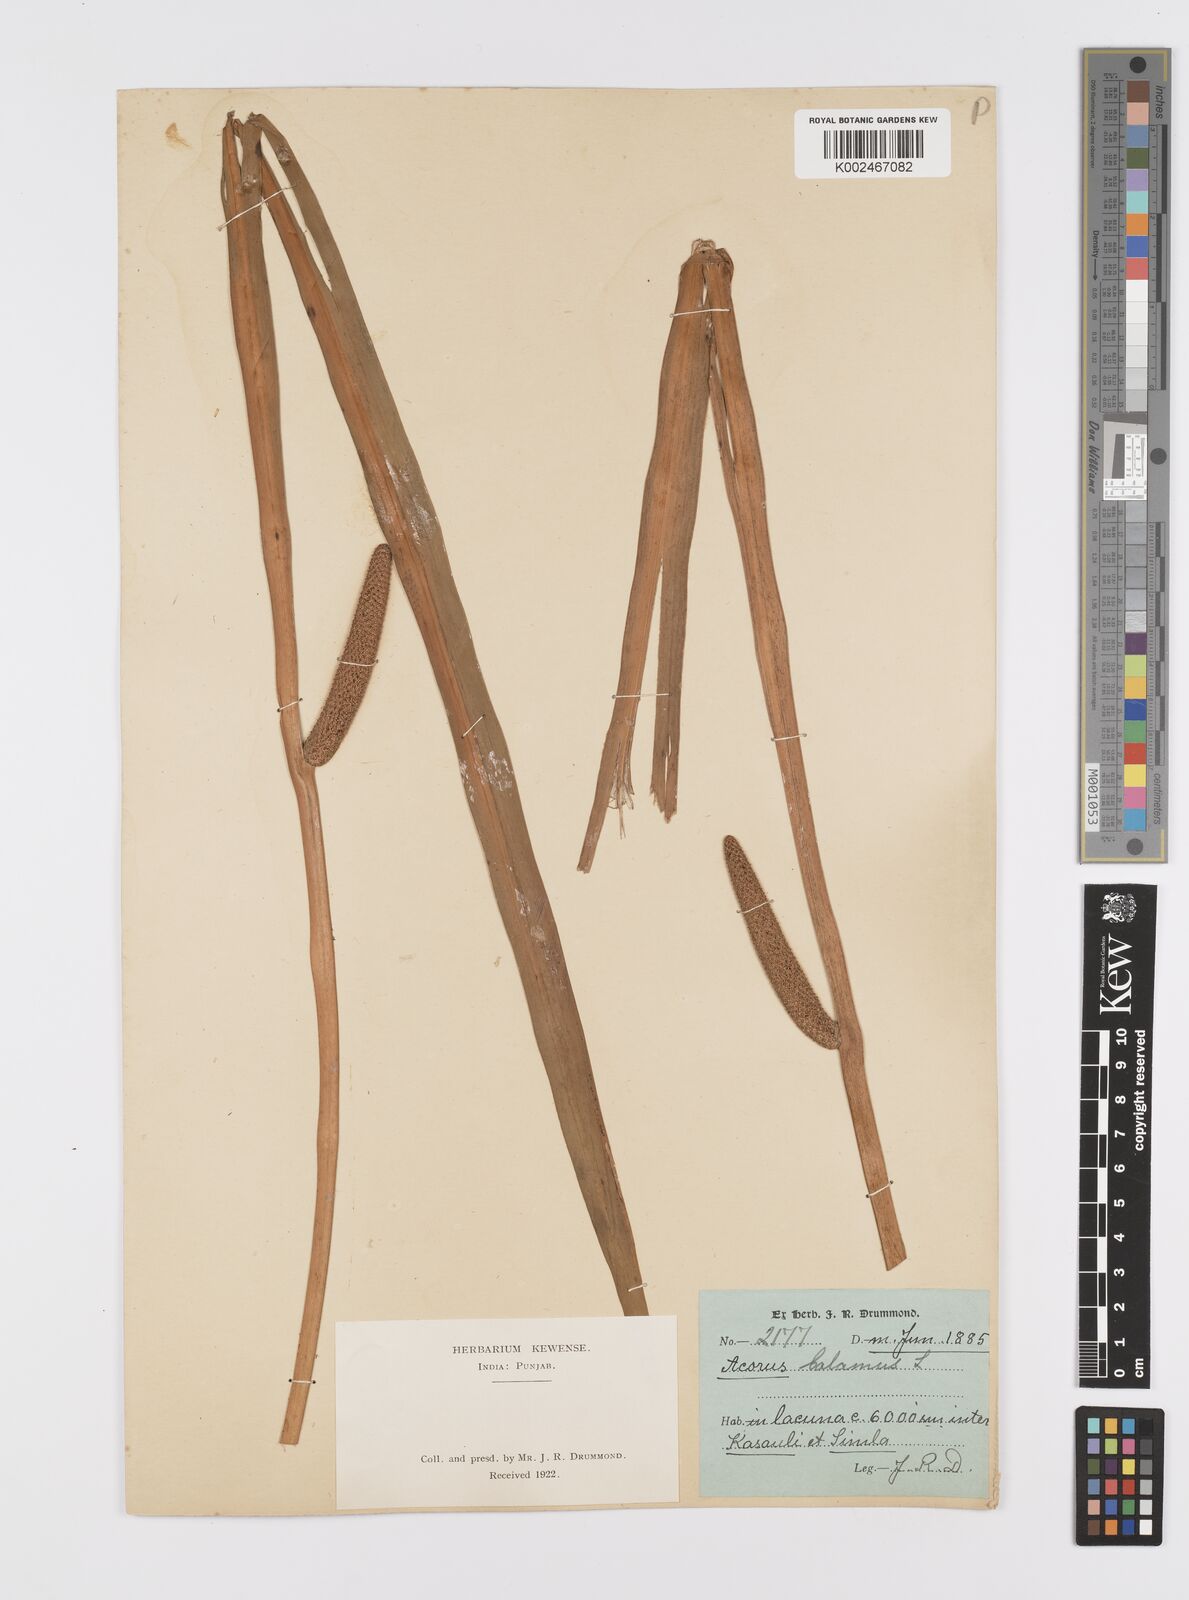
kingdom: Plantae
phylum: Tracheophyta
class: Liliopsida
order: Acorales
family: Acoraceae
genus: Acorus
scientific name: Acorus calamus
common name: Sweet-flag
